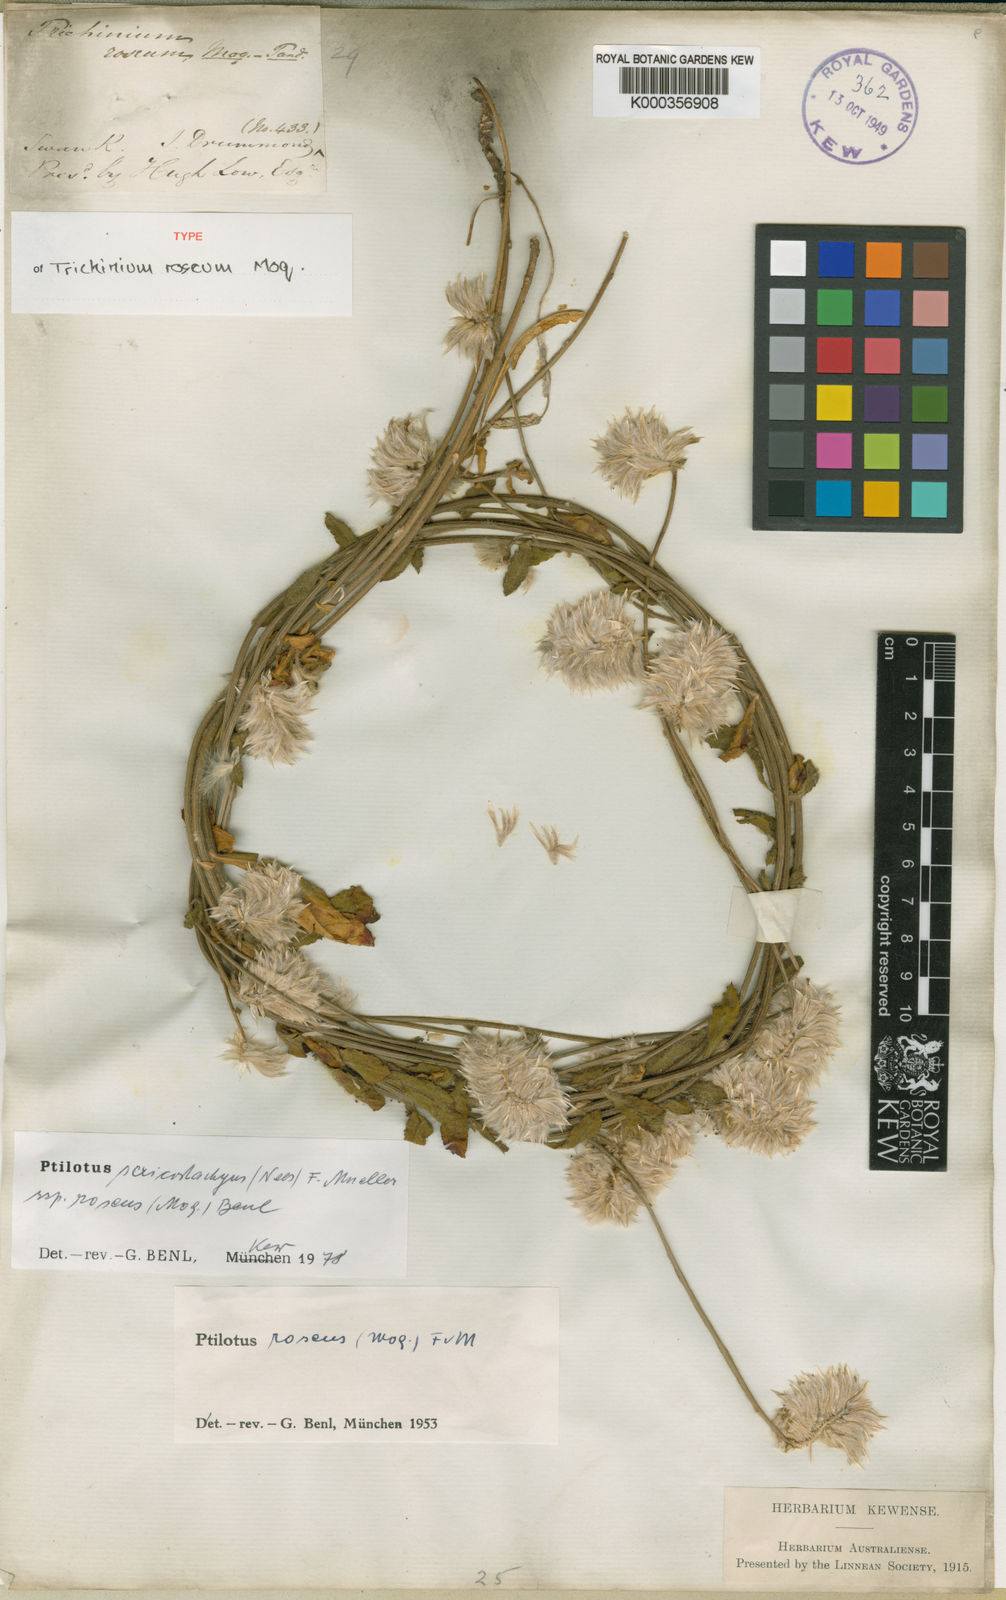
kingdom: Plantae
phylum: Tracheophyta
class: Magnoliopsida
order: Caryophyllales
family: Amaranthaceae
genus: Ptilotus
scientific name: Ptilotus sericostachyus
